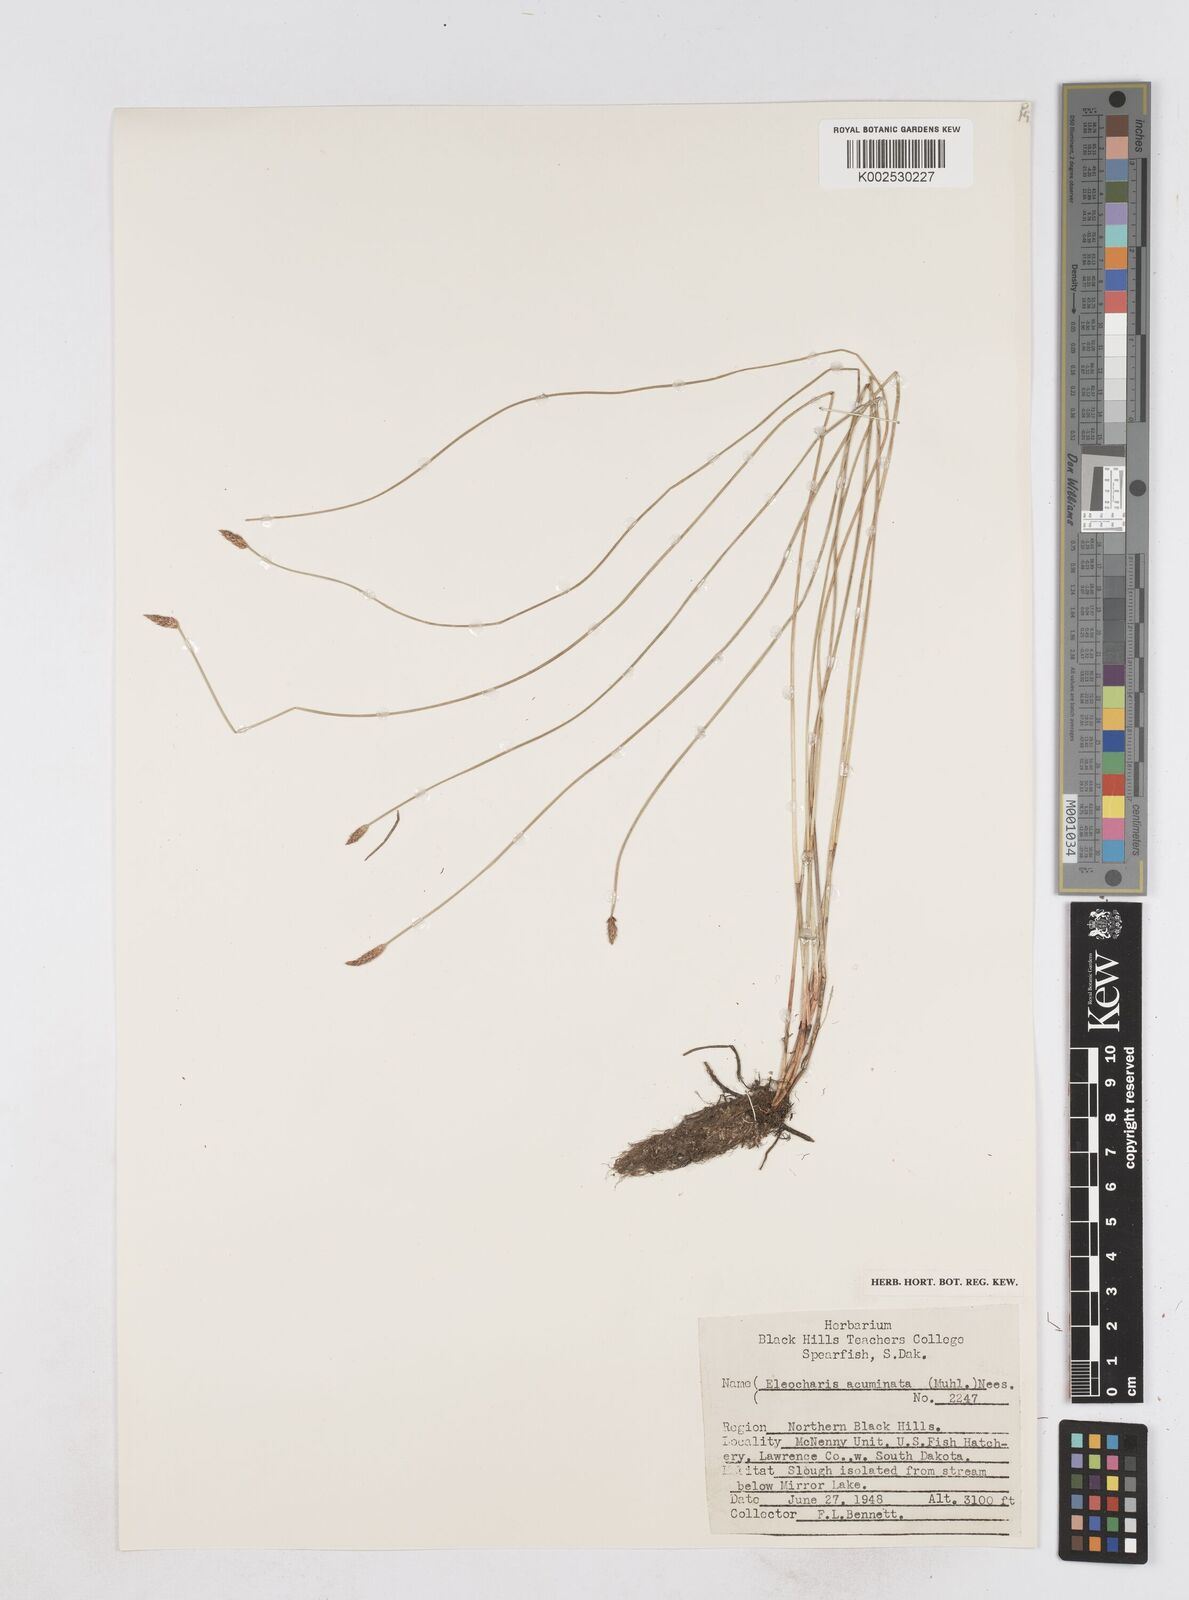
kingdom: Plantae
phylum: Tracheophyta
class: Liliopsida
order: Poales
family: Cyperaceae
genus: Eleocharis
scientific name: Eleocharis compressa
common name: Flat-stem spike-rush
